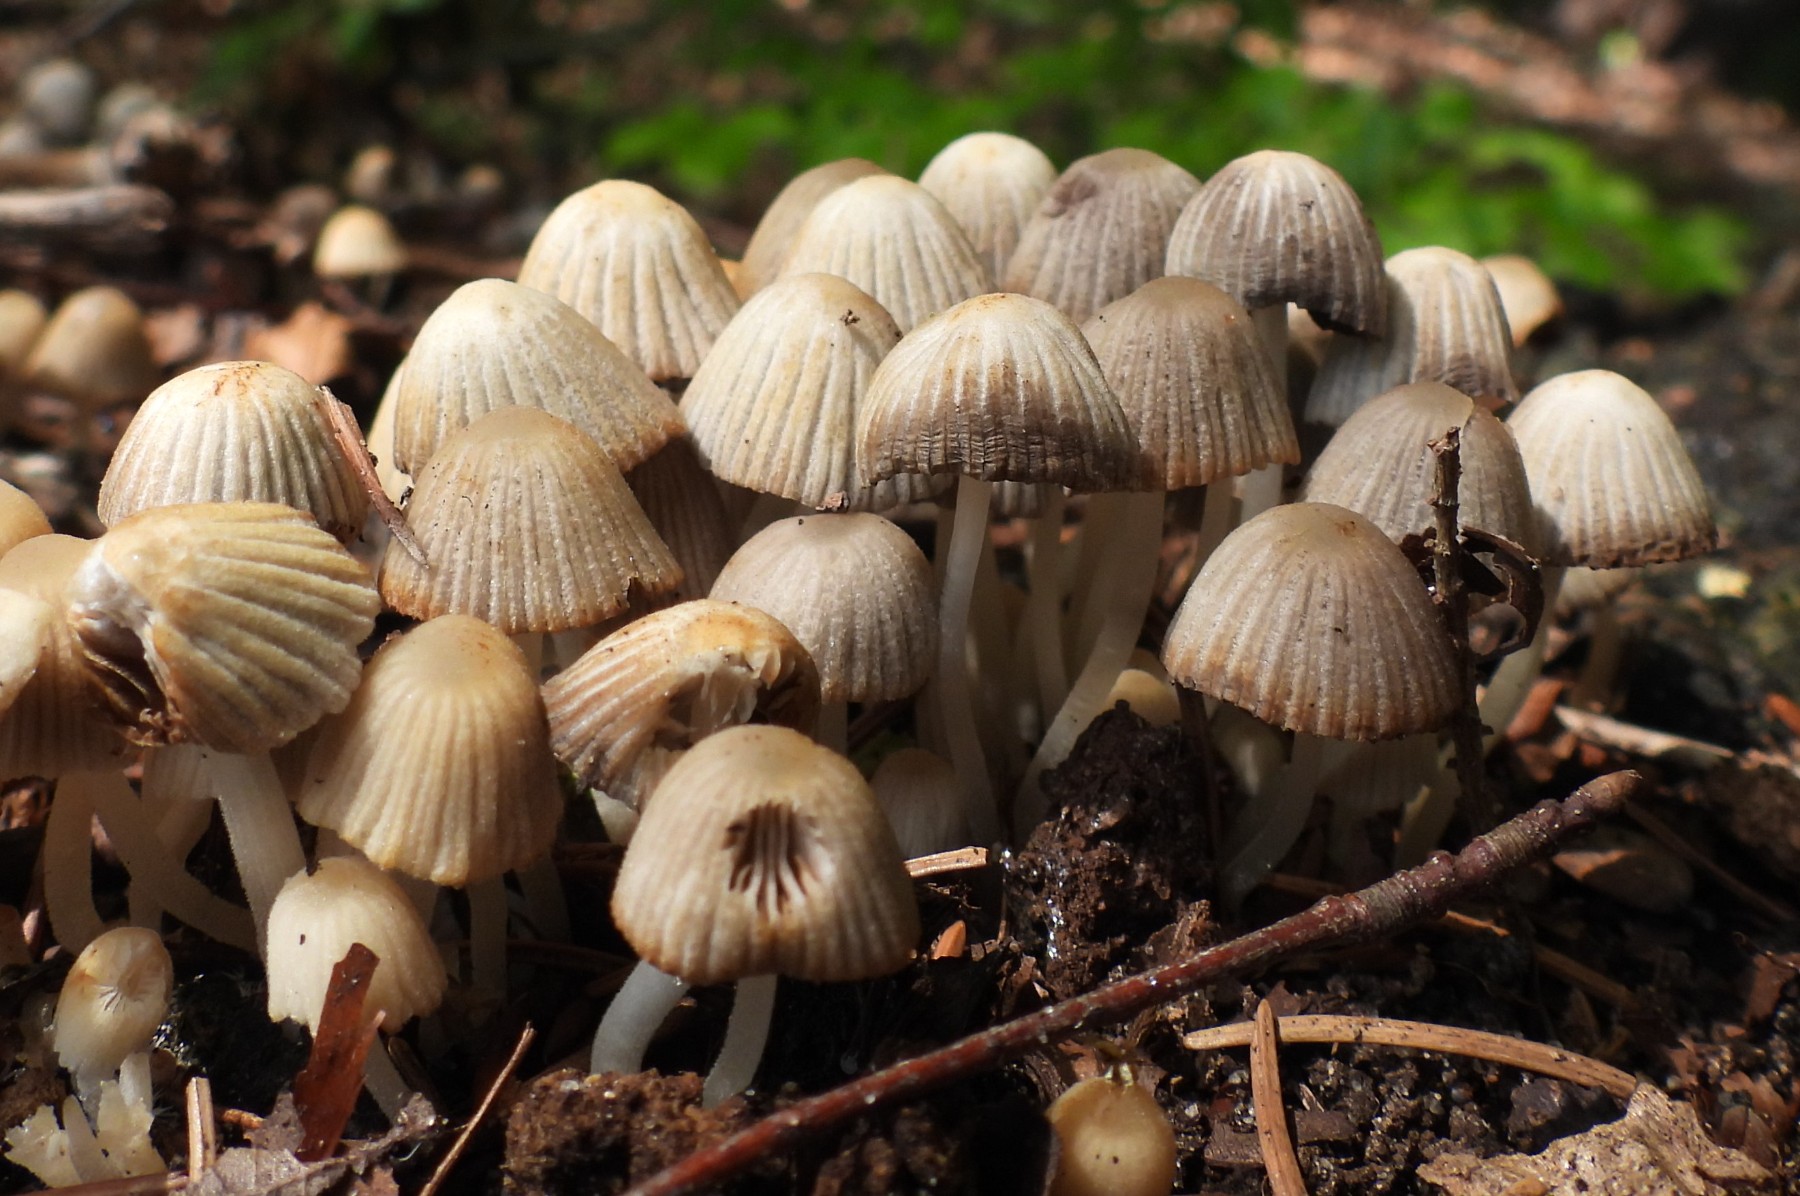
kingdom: Fungi
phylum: Basidiomycota
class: Agaricomycetes
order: Agaricales
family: Psathyrellaceae
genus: Coprinellus
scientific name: Coprinellus disseminatus
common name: bredsået blækhat
